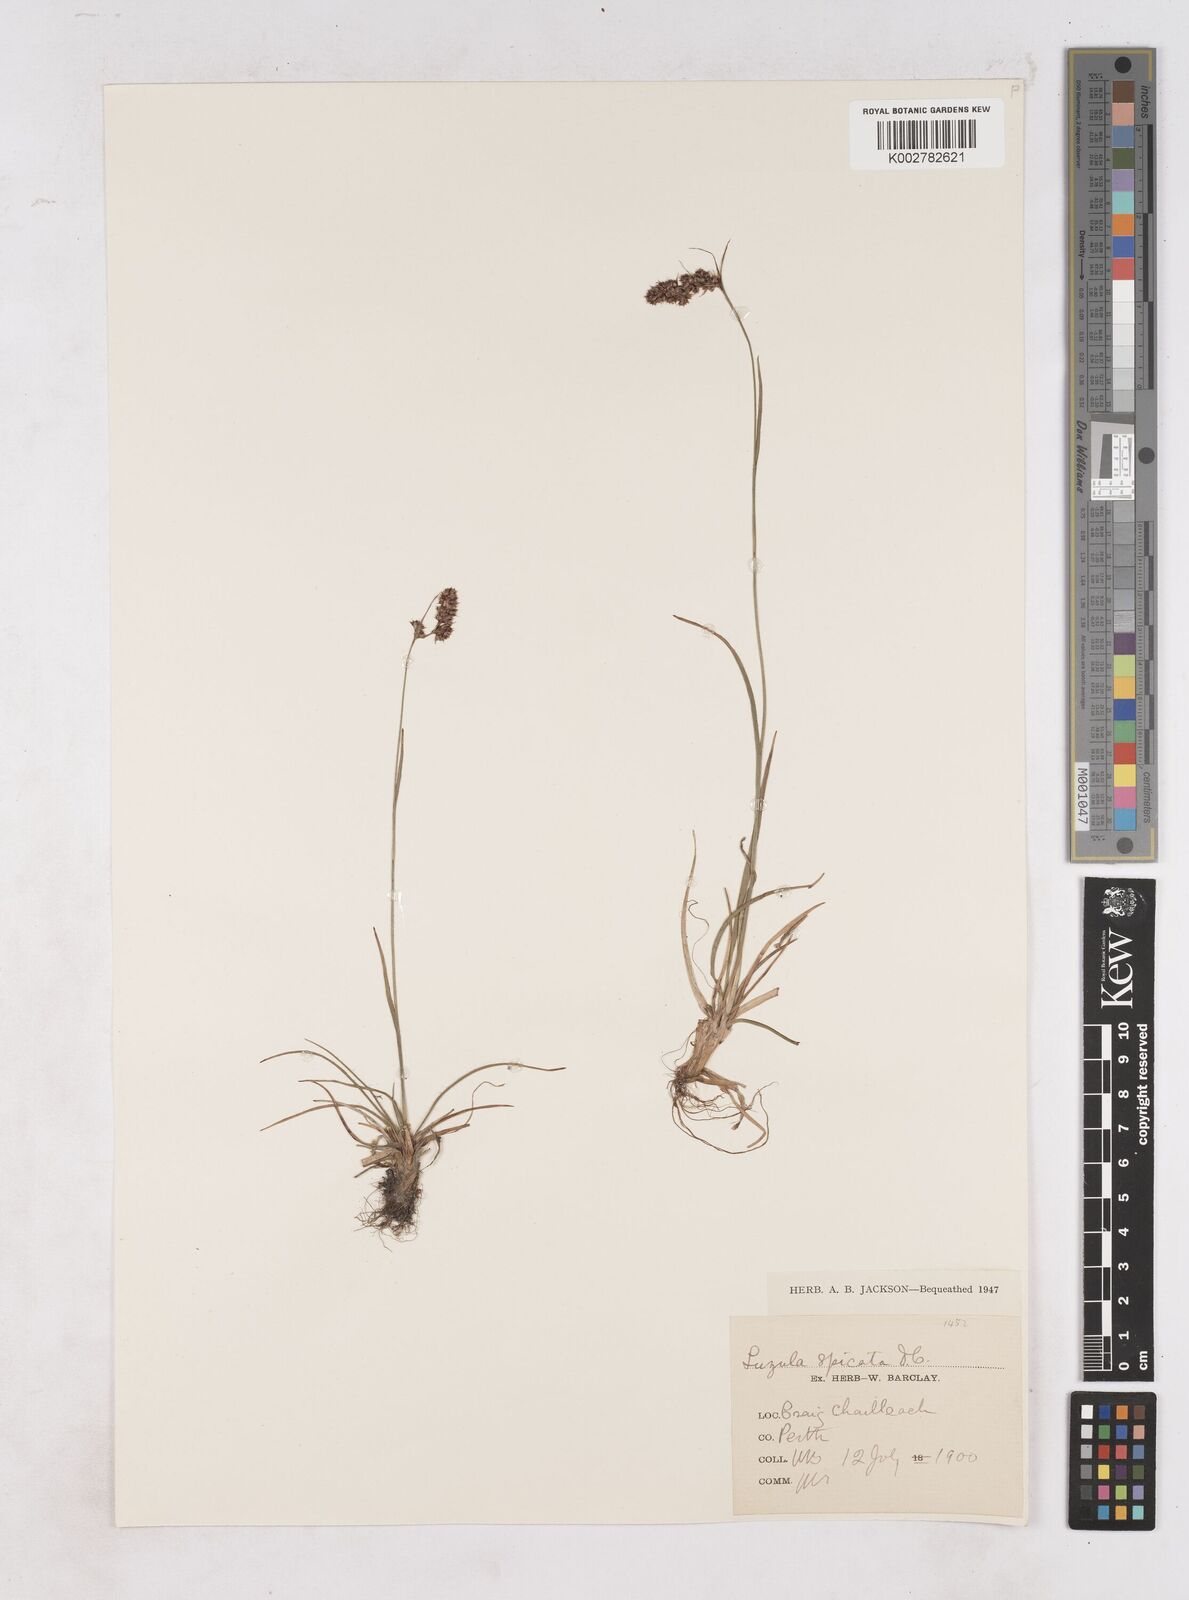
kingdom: Plantae
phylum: Tracheophyta
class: Liliopsida
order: Poales
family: Juncaceae
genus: Luzula
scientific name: Luzula spicata
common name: Spiked wood-rush
